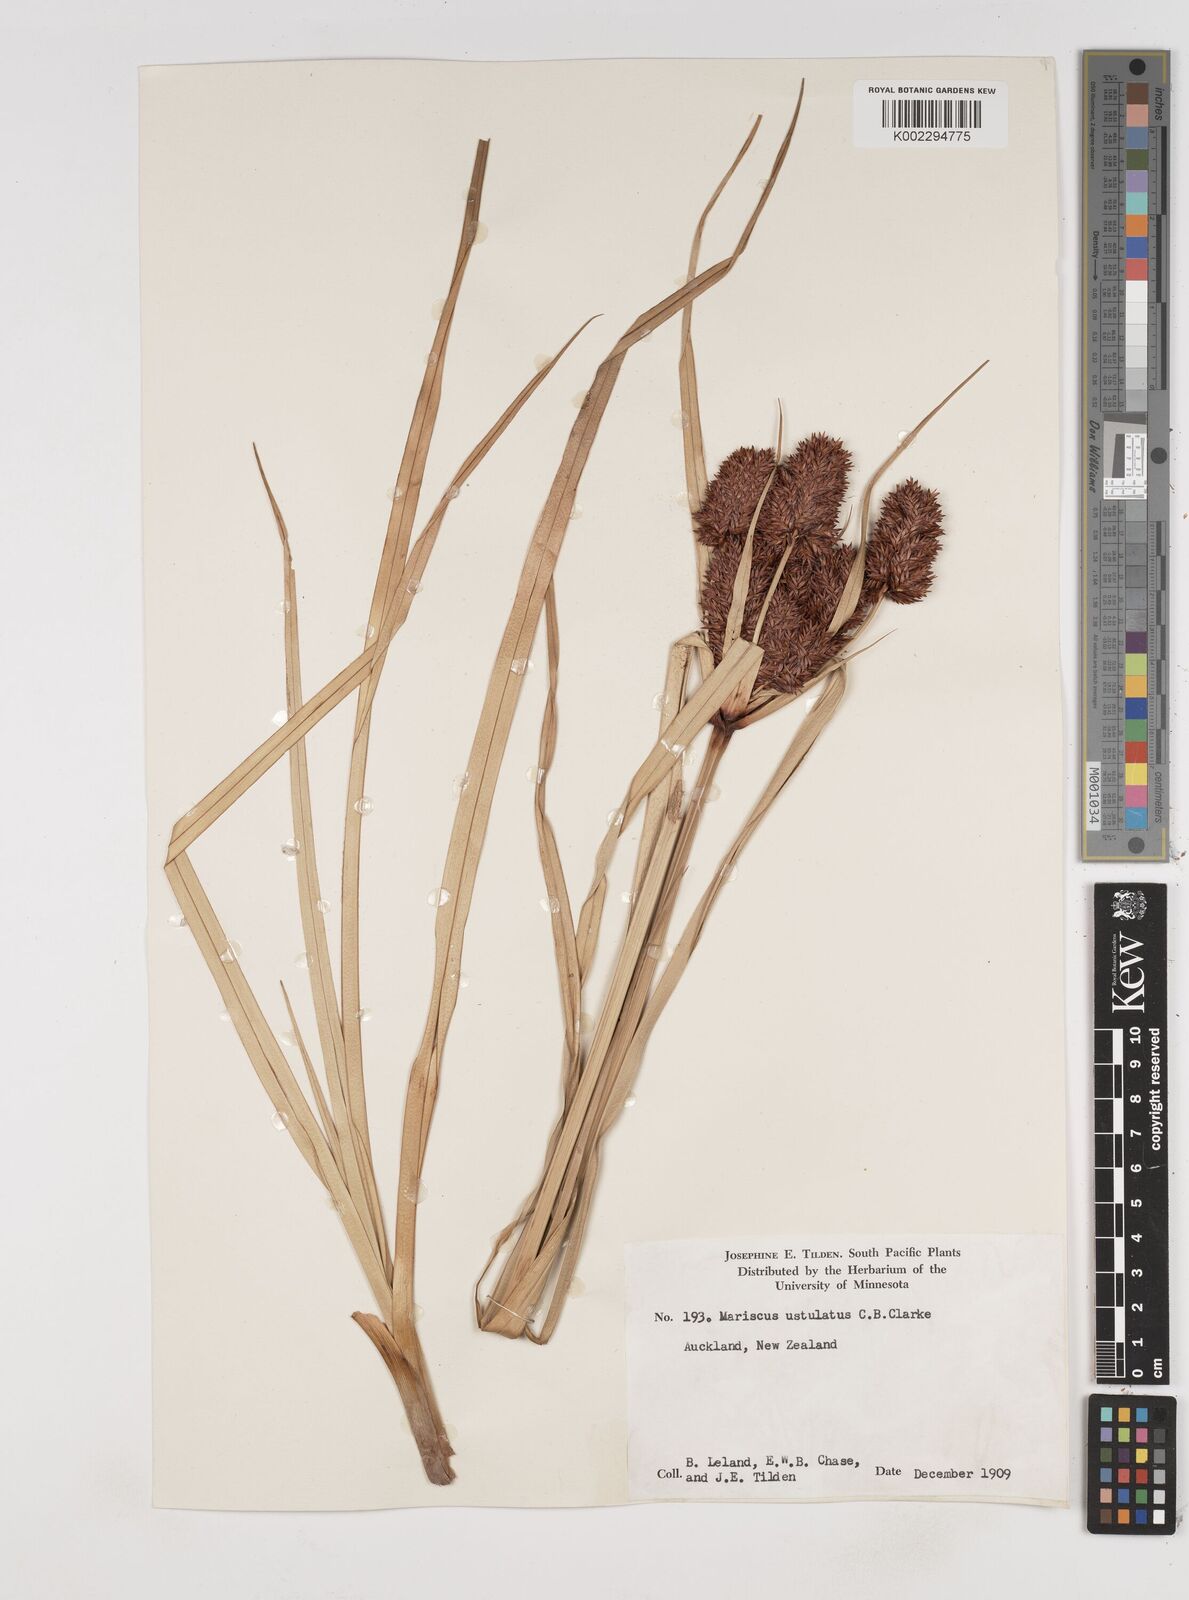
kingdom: Plantae
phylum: Tracheophyta
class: Liliopsida
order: Poales
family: Cyperaceae
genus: Cyperus
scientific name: Cyperus ustulatus
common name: Giant umbrella-sedge
